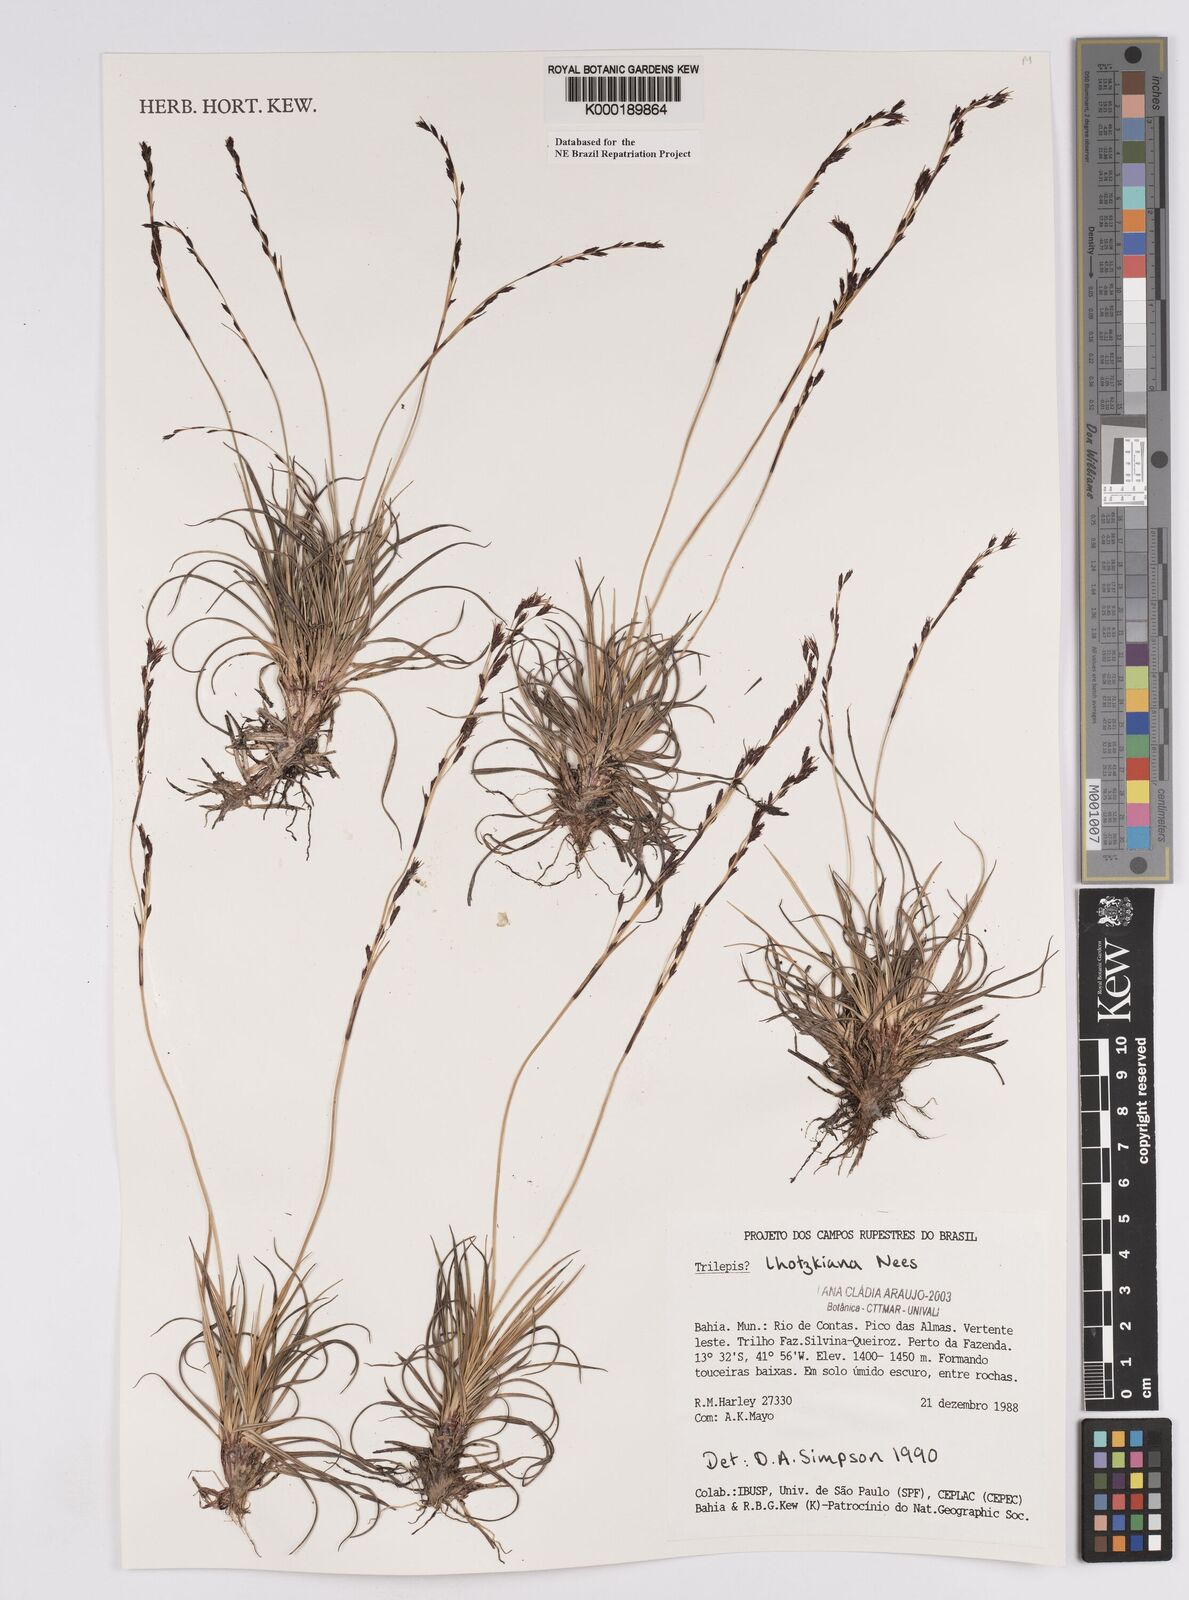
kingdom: Plantae
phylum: Tracheophyta
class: Liliopsida
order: Poales
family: Cyperaceae
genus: Trilepis
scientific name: Trilepis lhotzkiana
